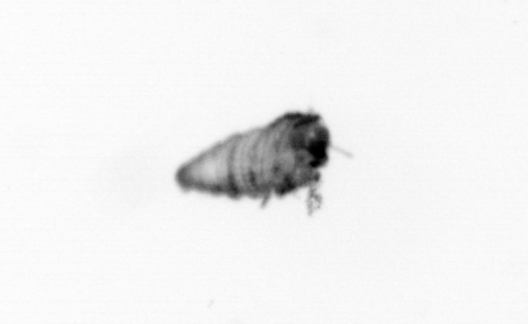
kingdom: Chromista
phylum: Foraminifera
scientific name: Foraminifera
